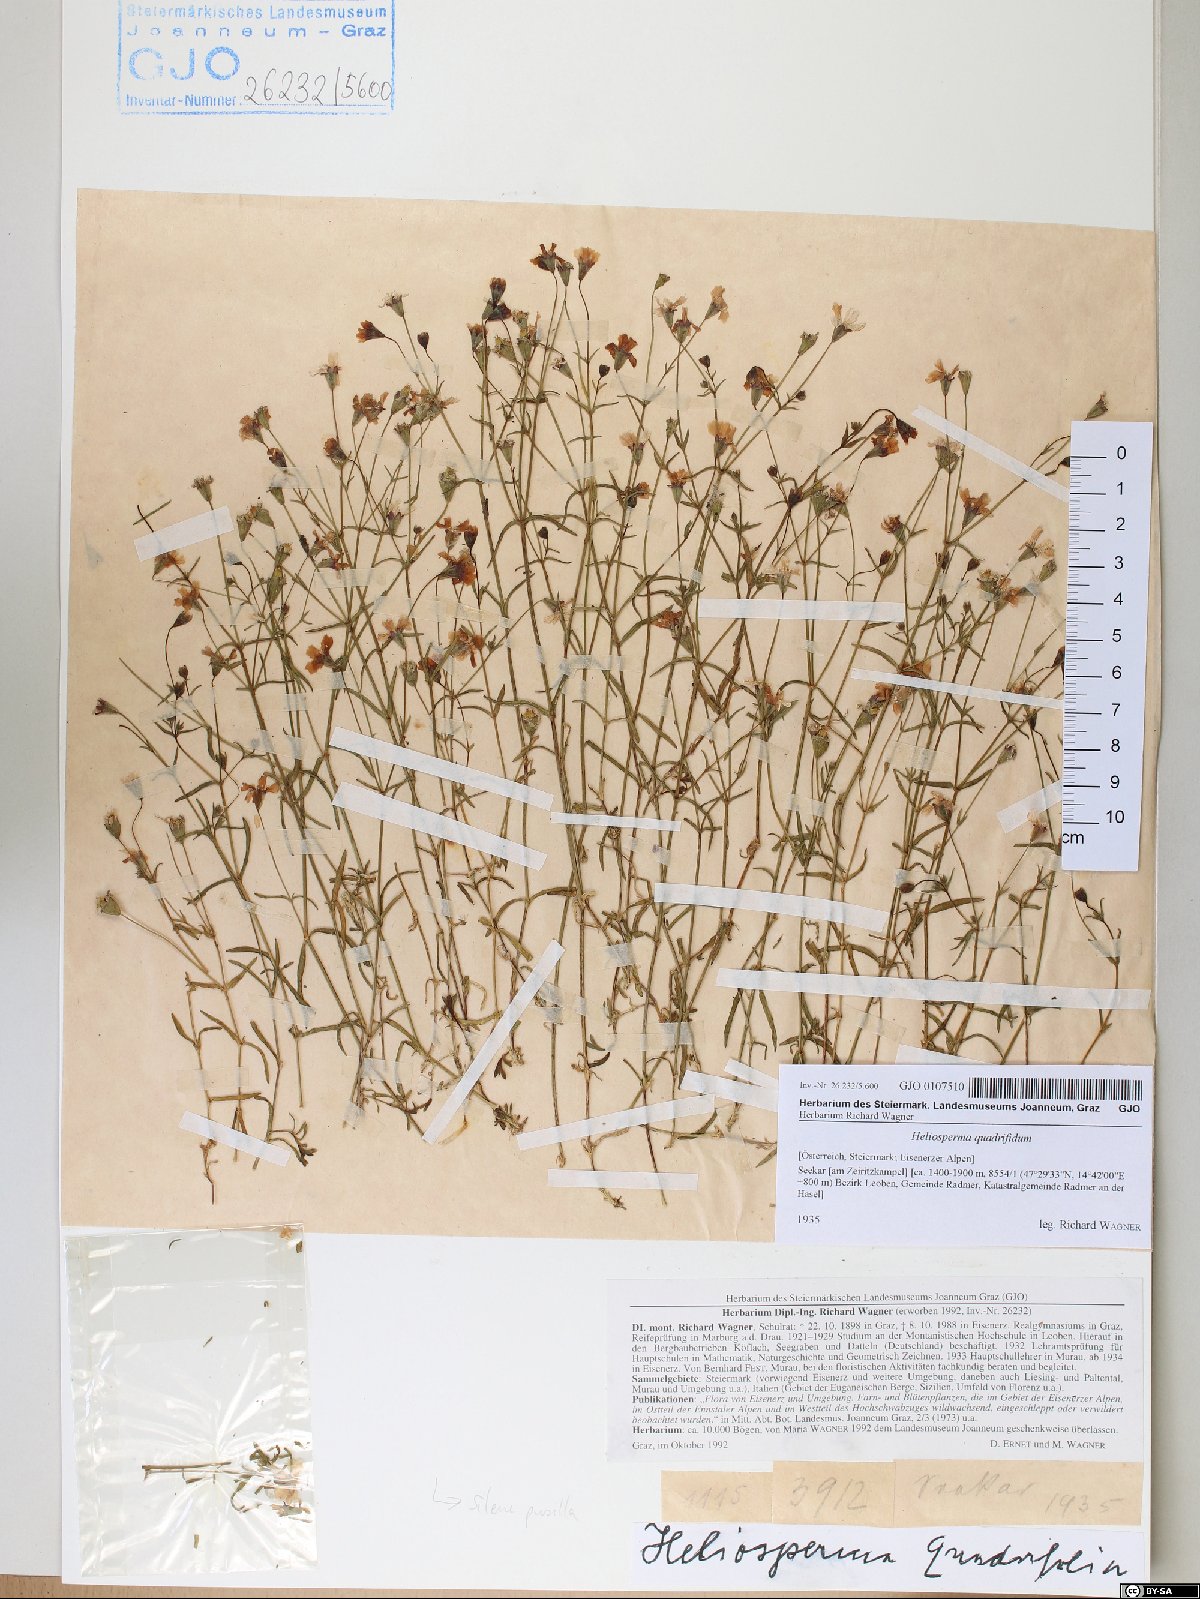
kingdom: Plantae
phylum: Tracheophyta
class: Magnoliopsida
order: Caryophyllales
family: Caryophyllaceae
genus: Heliosperma
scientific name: Heliosperma alpestre
